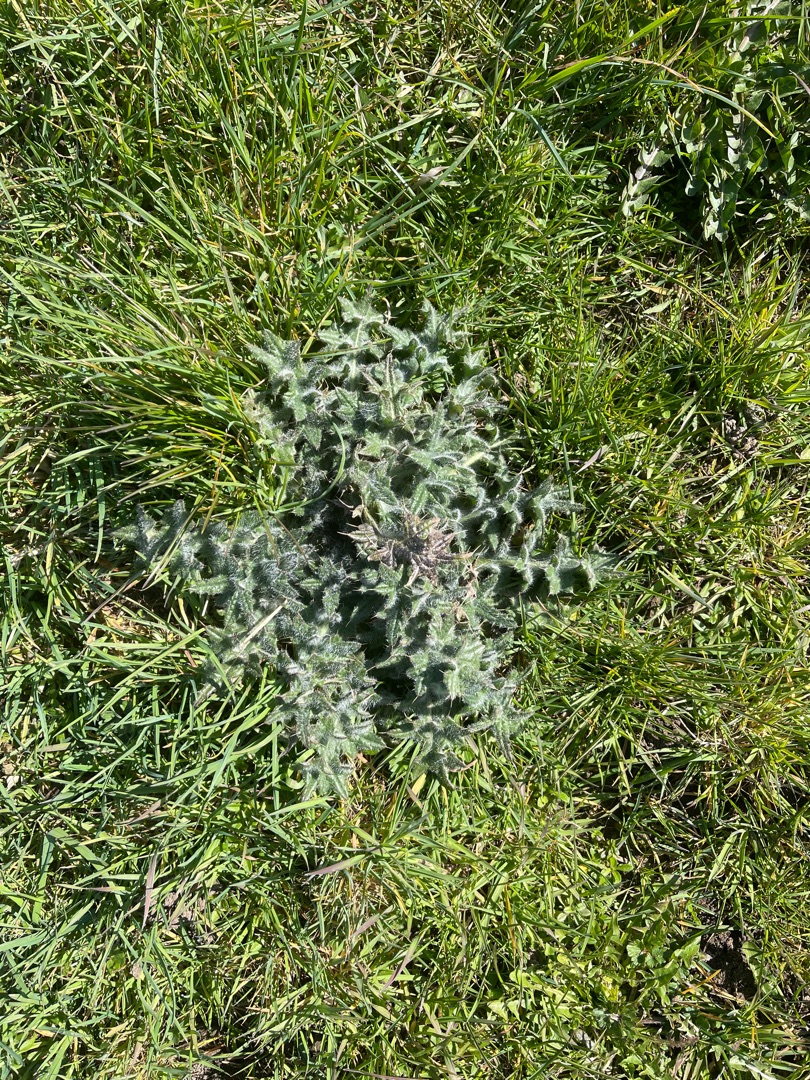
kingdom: Plantae
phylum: Tracheophyta
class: Magnoliopsida
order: Asterales
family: Asteraceae
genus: Cirsium
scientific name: Cirsium vulgare
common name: Horse-tidsel
